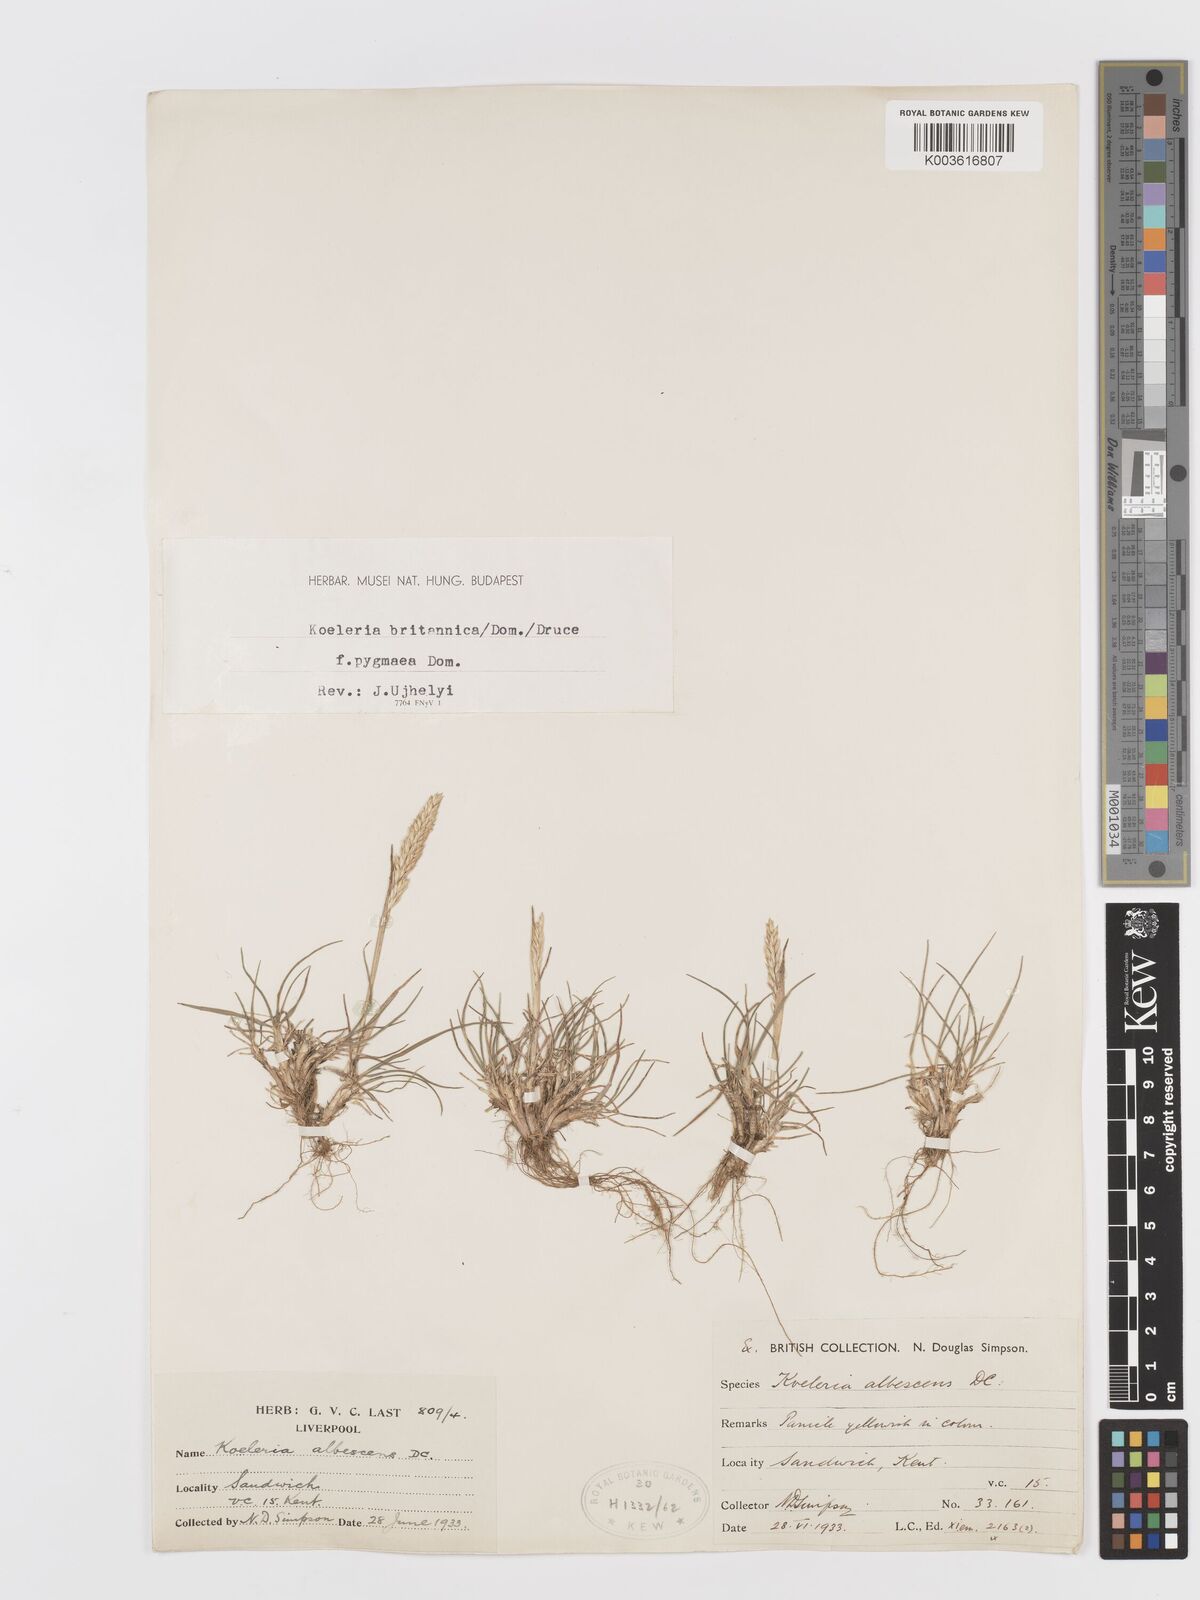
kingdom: Plantae
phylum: Tracheophyta
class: Liliopsida
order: Poales
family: Poaceae
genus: Koeleria
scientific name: Koeleria macrantha
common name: Crested hair-grass
